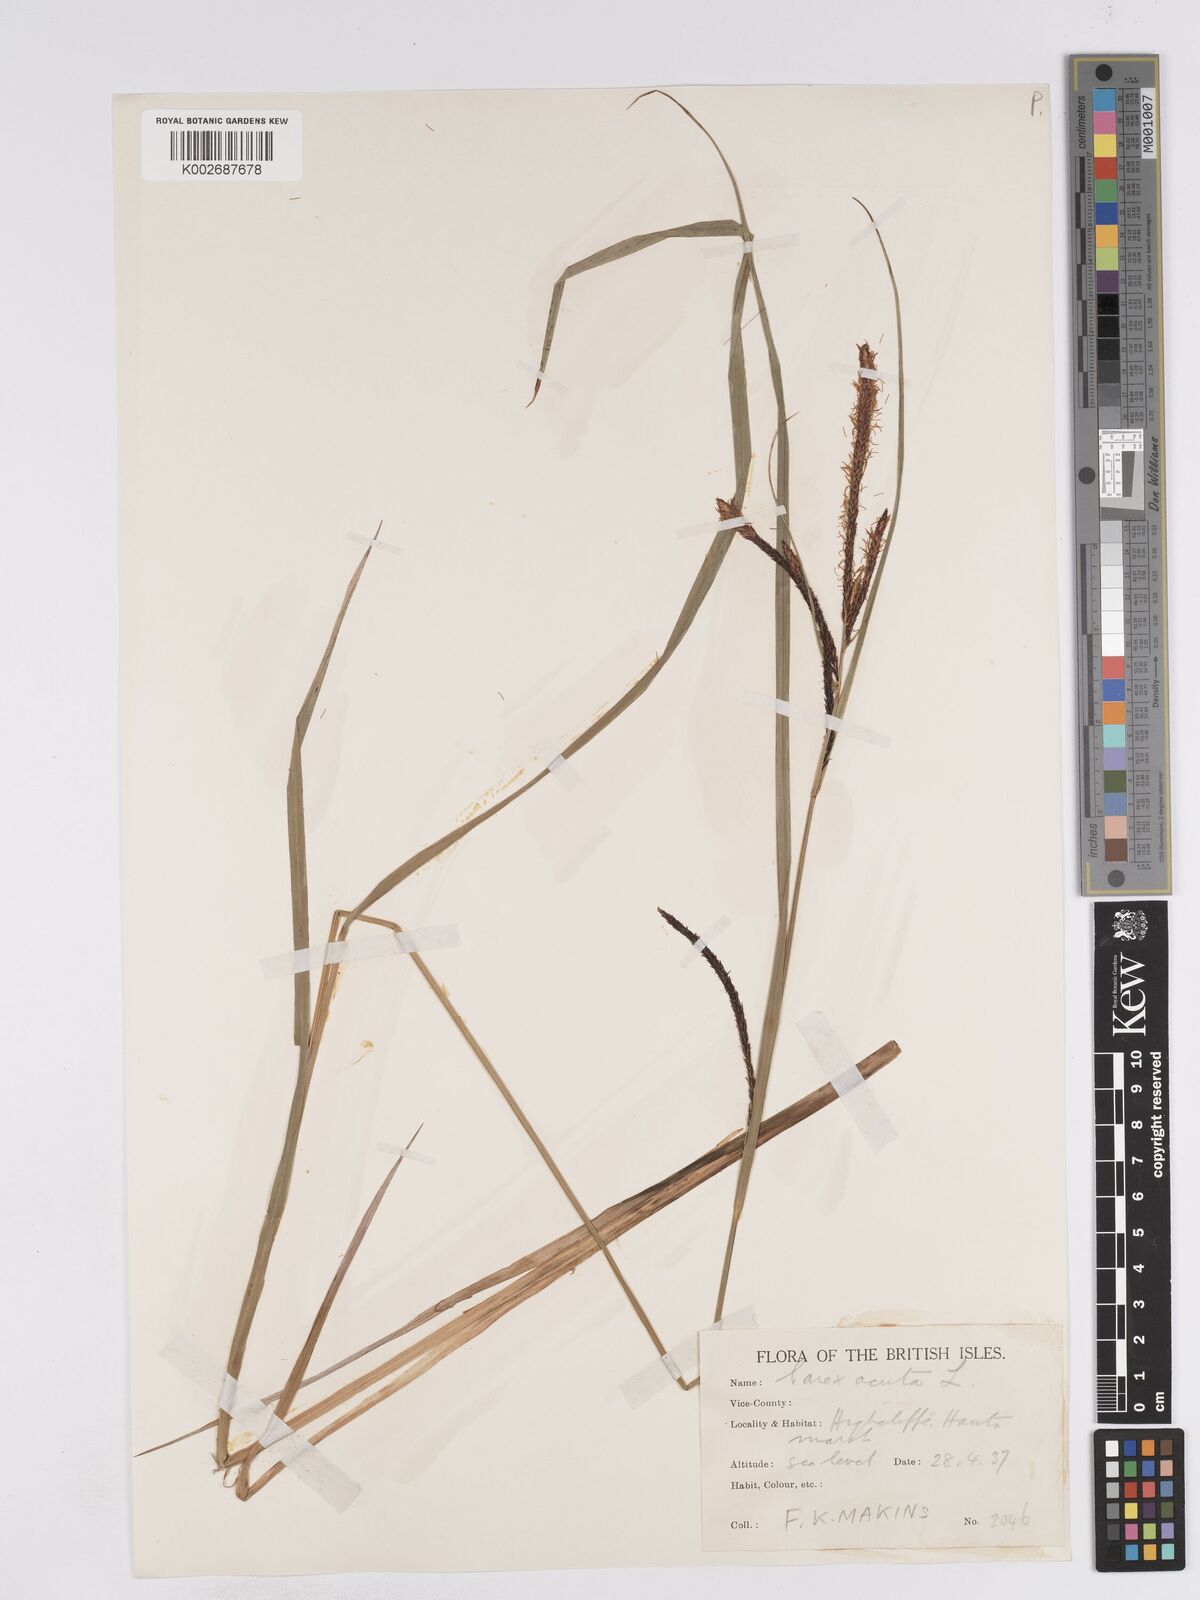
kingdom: Plantae
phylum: Tracheophyta
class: Liliopsida
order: Poales
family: Cyperaceae
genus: Carex
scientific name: Carex acuta
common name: Slender tufted-sedge
